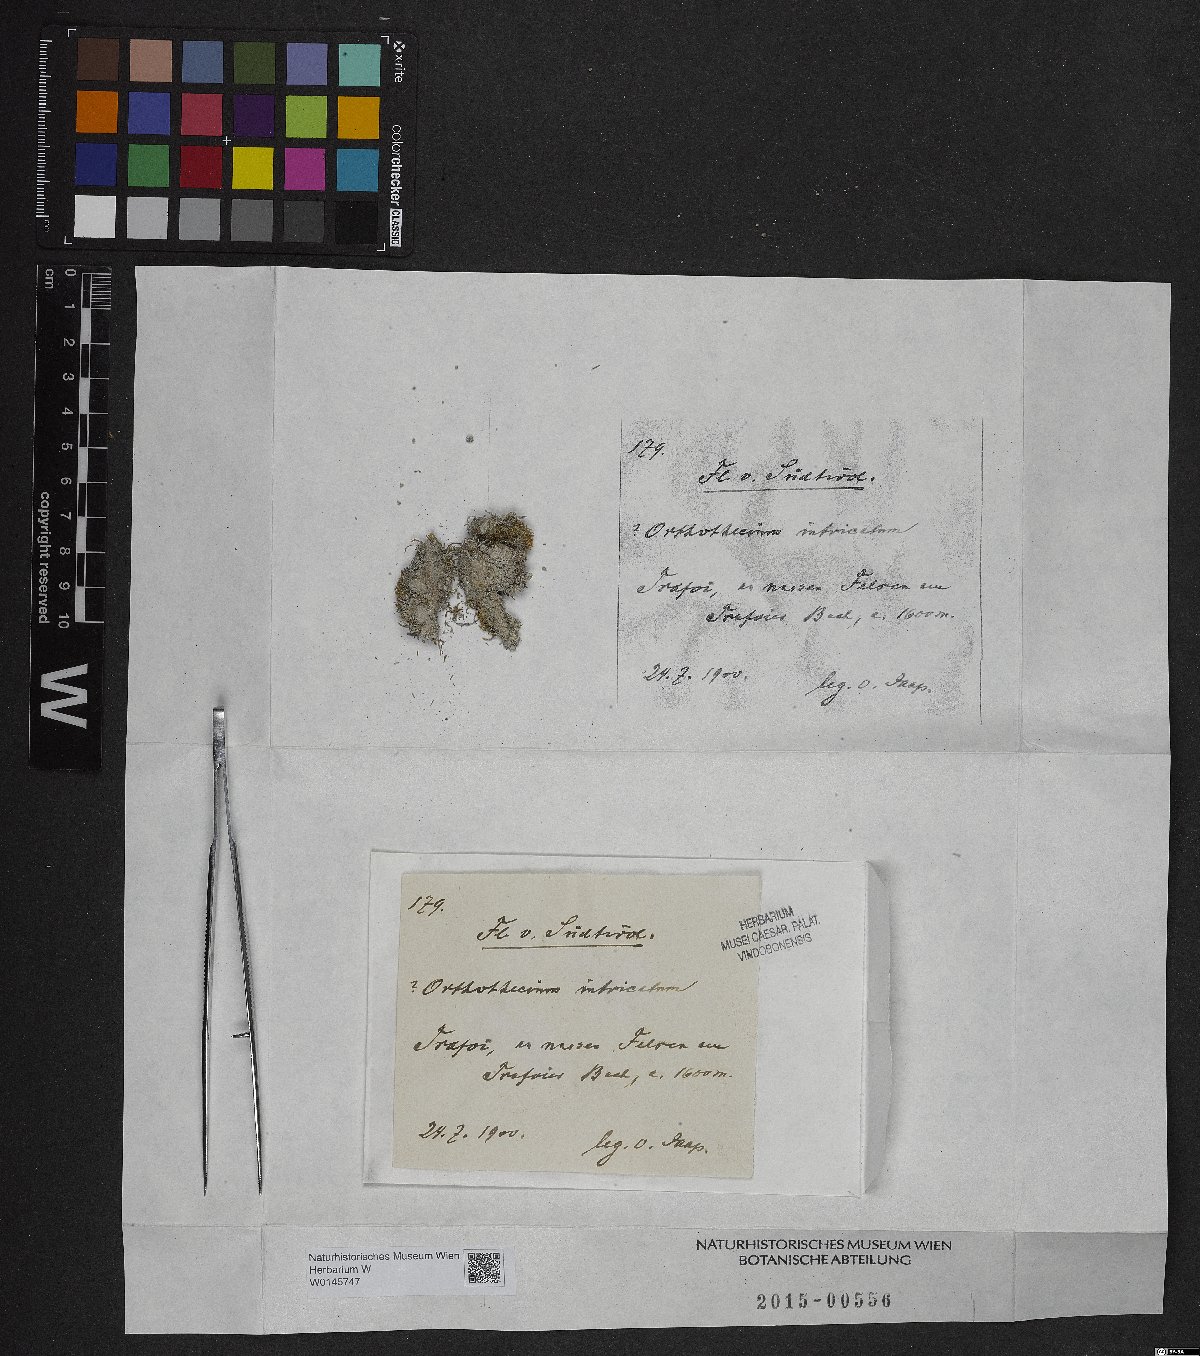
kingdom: Plantae
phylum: Bryophyta
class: Bryopsida
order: Hypnales
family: Plagiotheciaceae
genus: Orthothecium
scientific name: Orthothecium intricatum
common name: Fine-leaved erect-capsule moss
